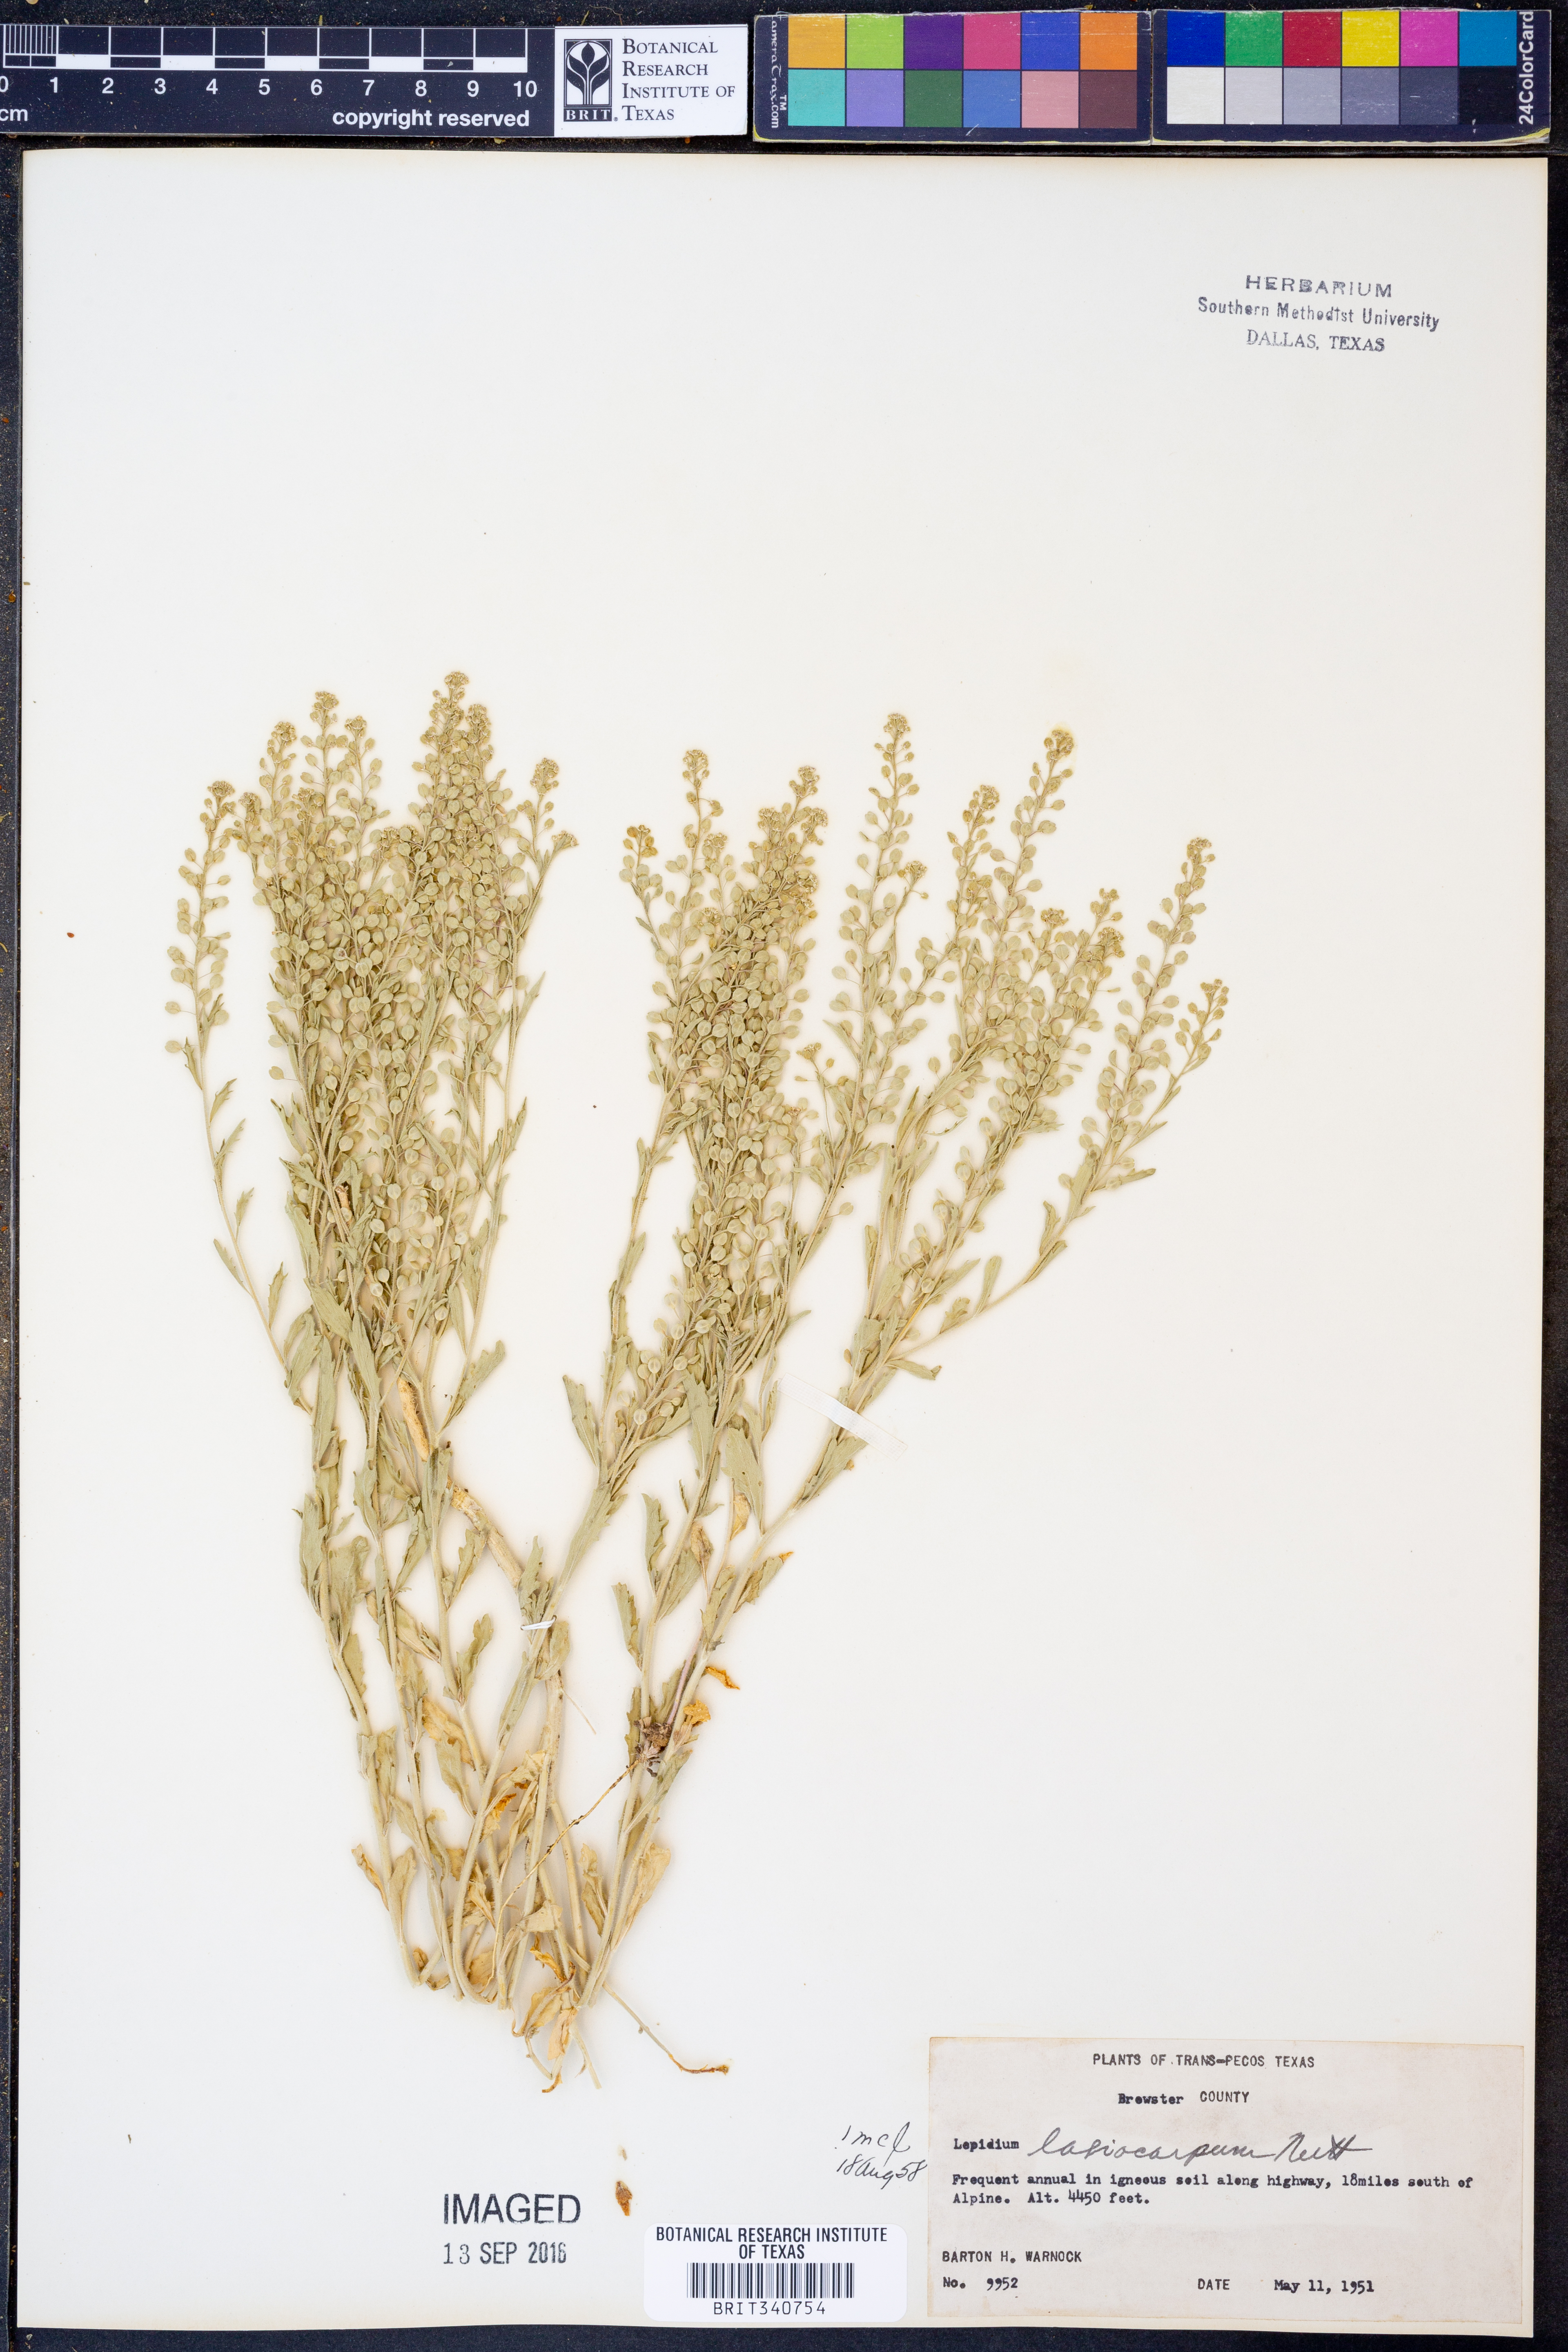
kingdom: Plantae
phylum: Tracheophyta
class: Magnoliopsida
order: Brassicales
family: Brassicaceae
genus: Lepidium
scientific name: Lepidium lasiocarpum
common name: Hairy-pod pepperwort
